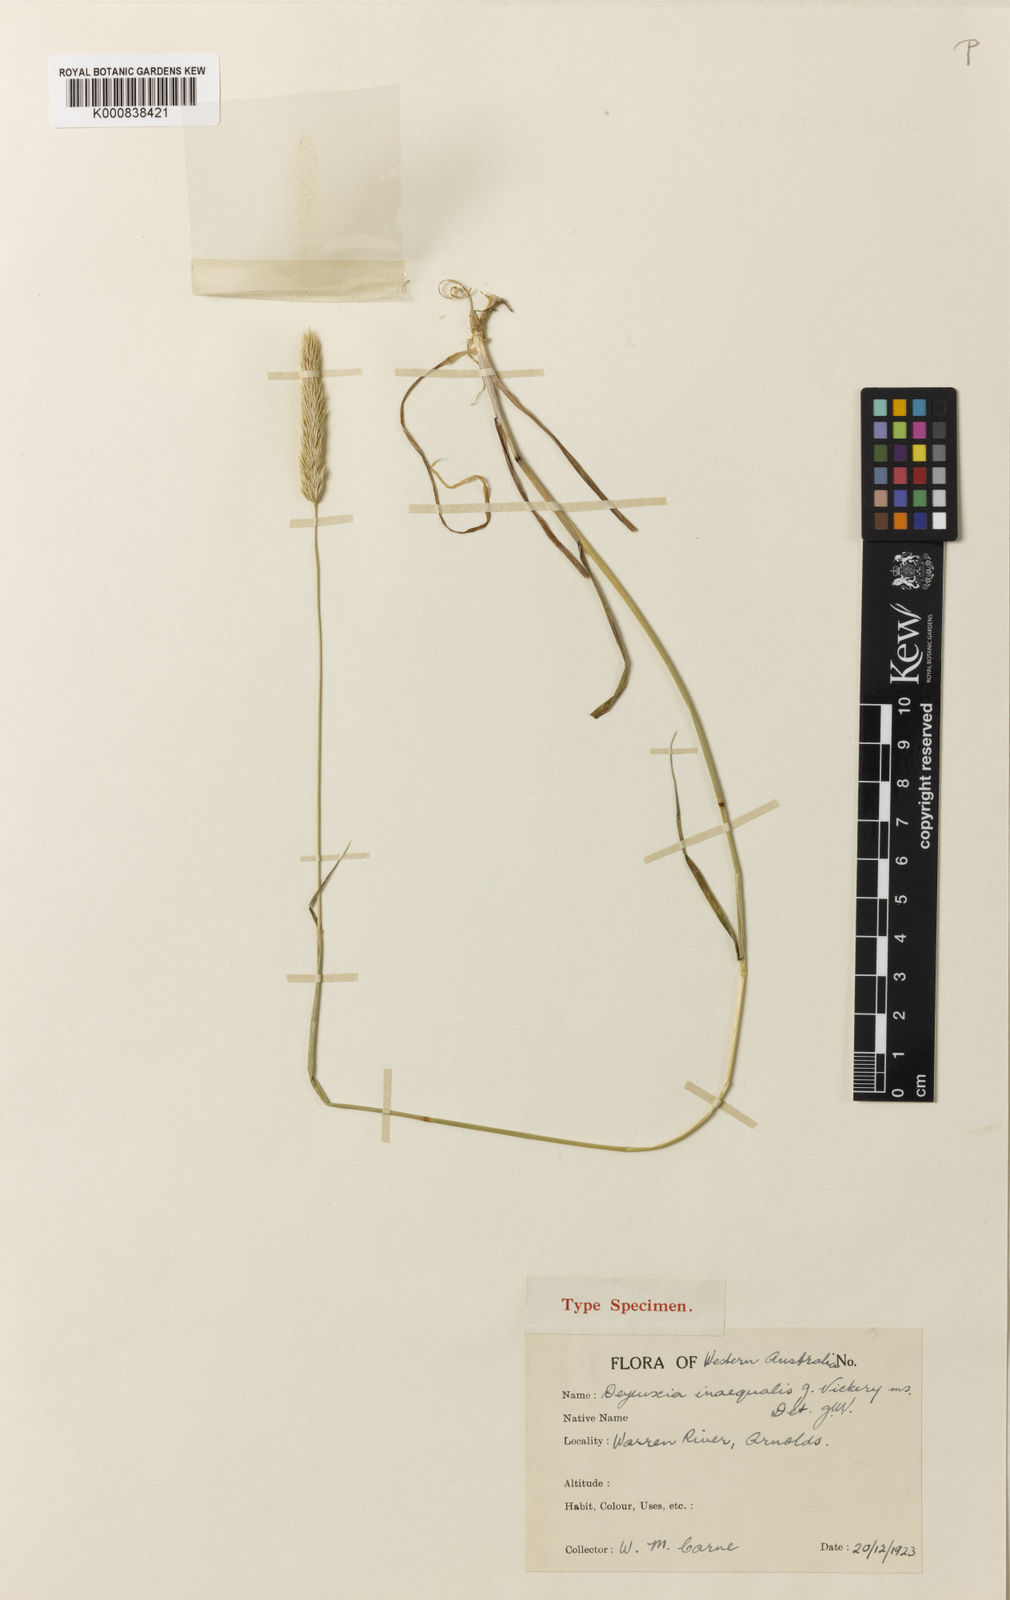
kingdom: Plantae
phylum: Tracheophyta
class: Liliopsida
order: Poales
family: Poaceae
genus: Calamagrostis
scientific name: Calamagrostis inaequalis
